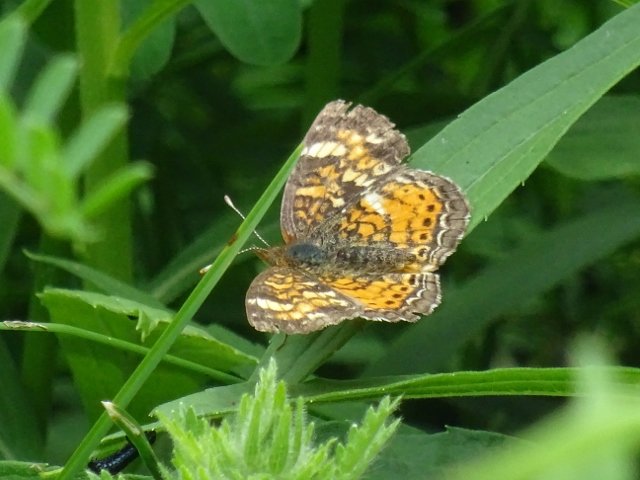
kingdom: Animalia
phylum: Arthropoda
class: Insecta
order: Lepidoptera
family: Nymphalidae
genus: Phyciodes
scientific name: Phyciodes tharos
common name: Northern Crescent
